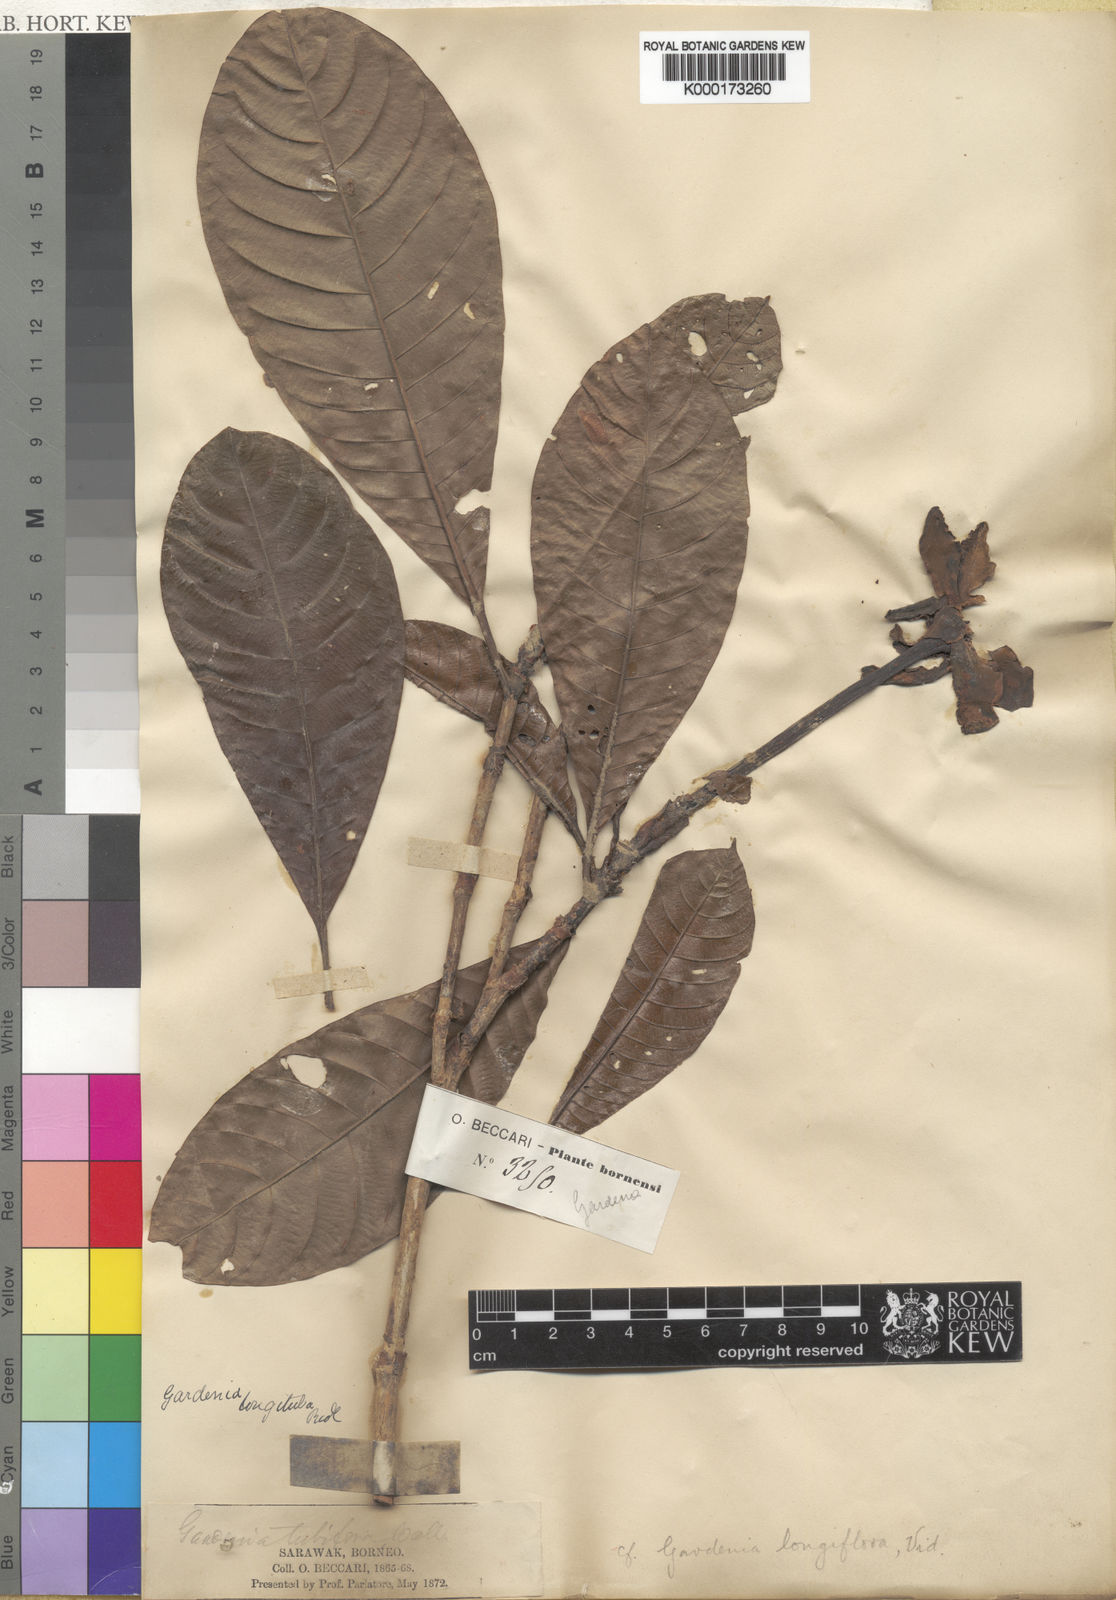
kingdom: Plantae
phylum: Tracheophyta
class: Magnoliopsida
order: Gentianales
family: Rubiaceae
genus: Gardenia
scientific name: Gardenia elata
